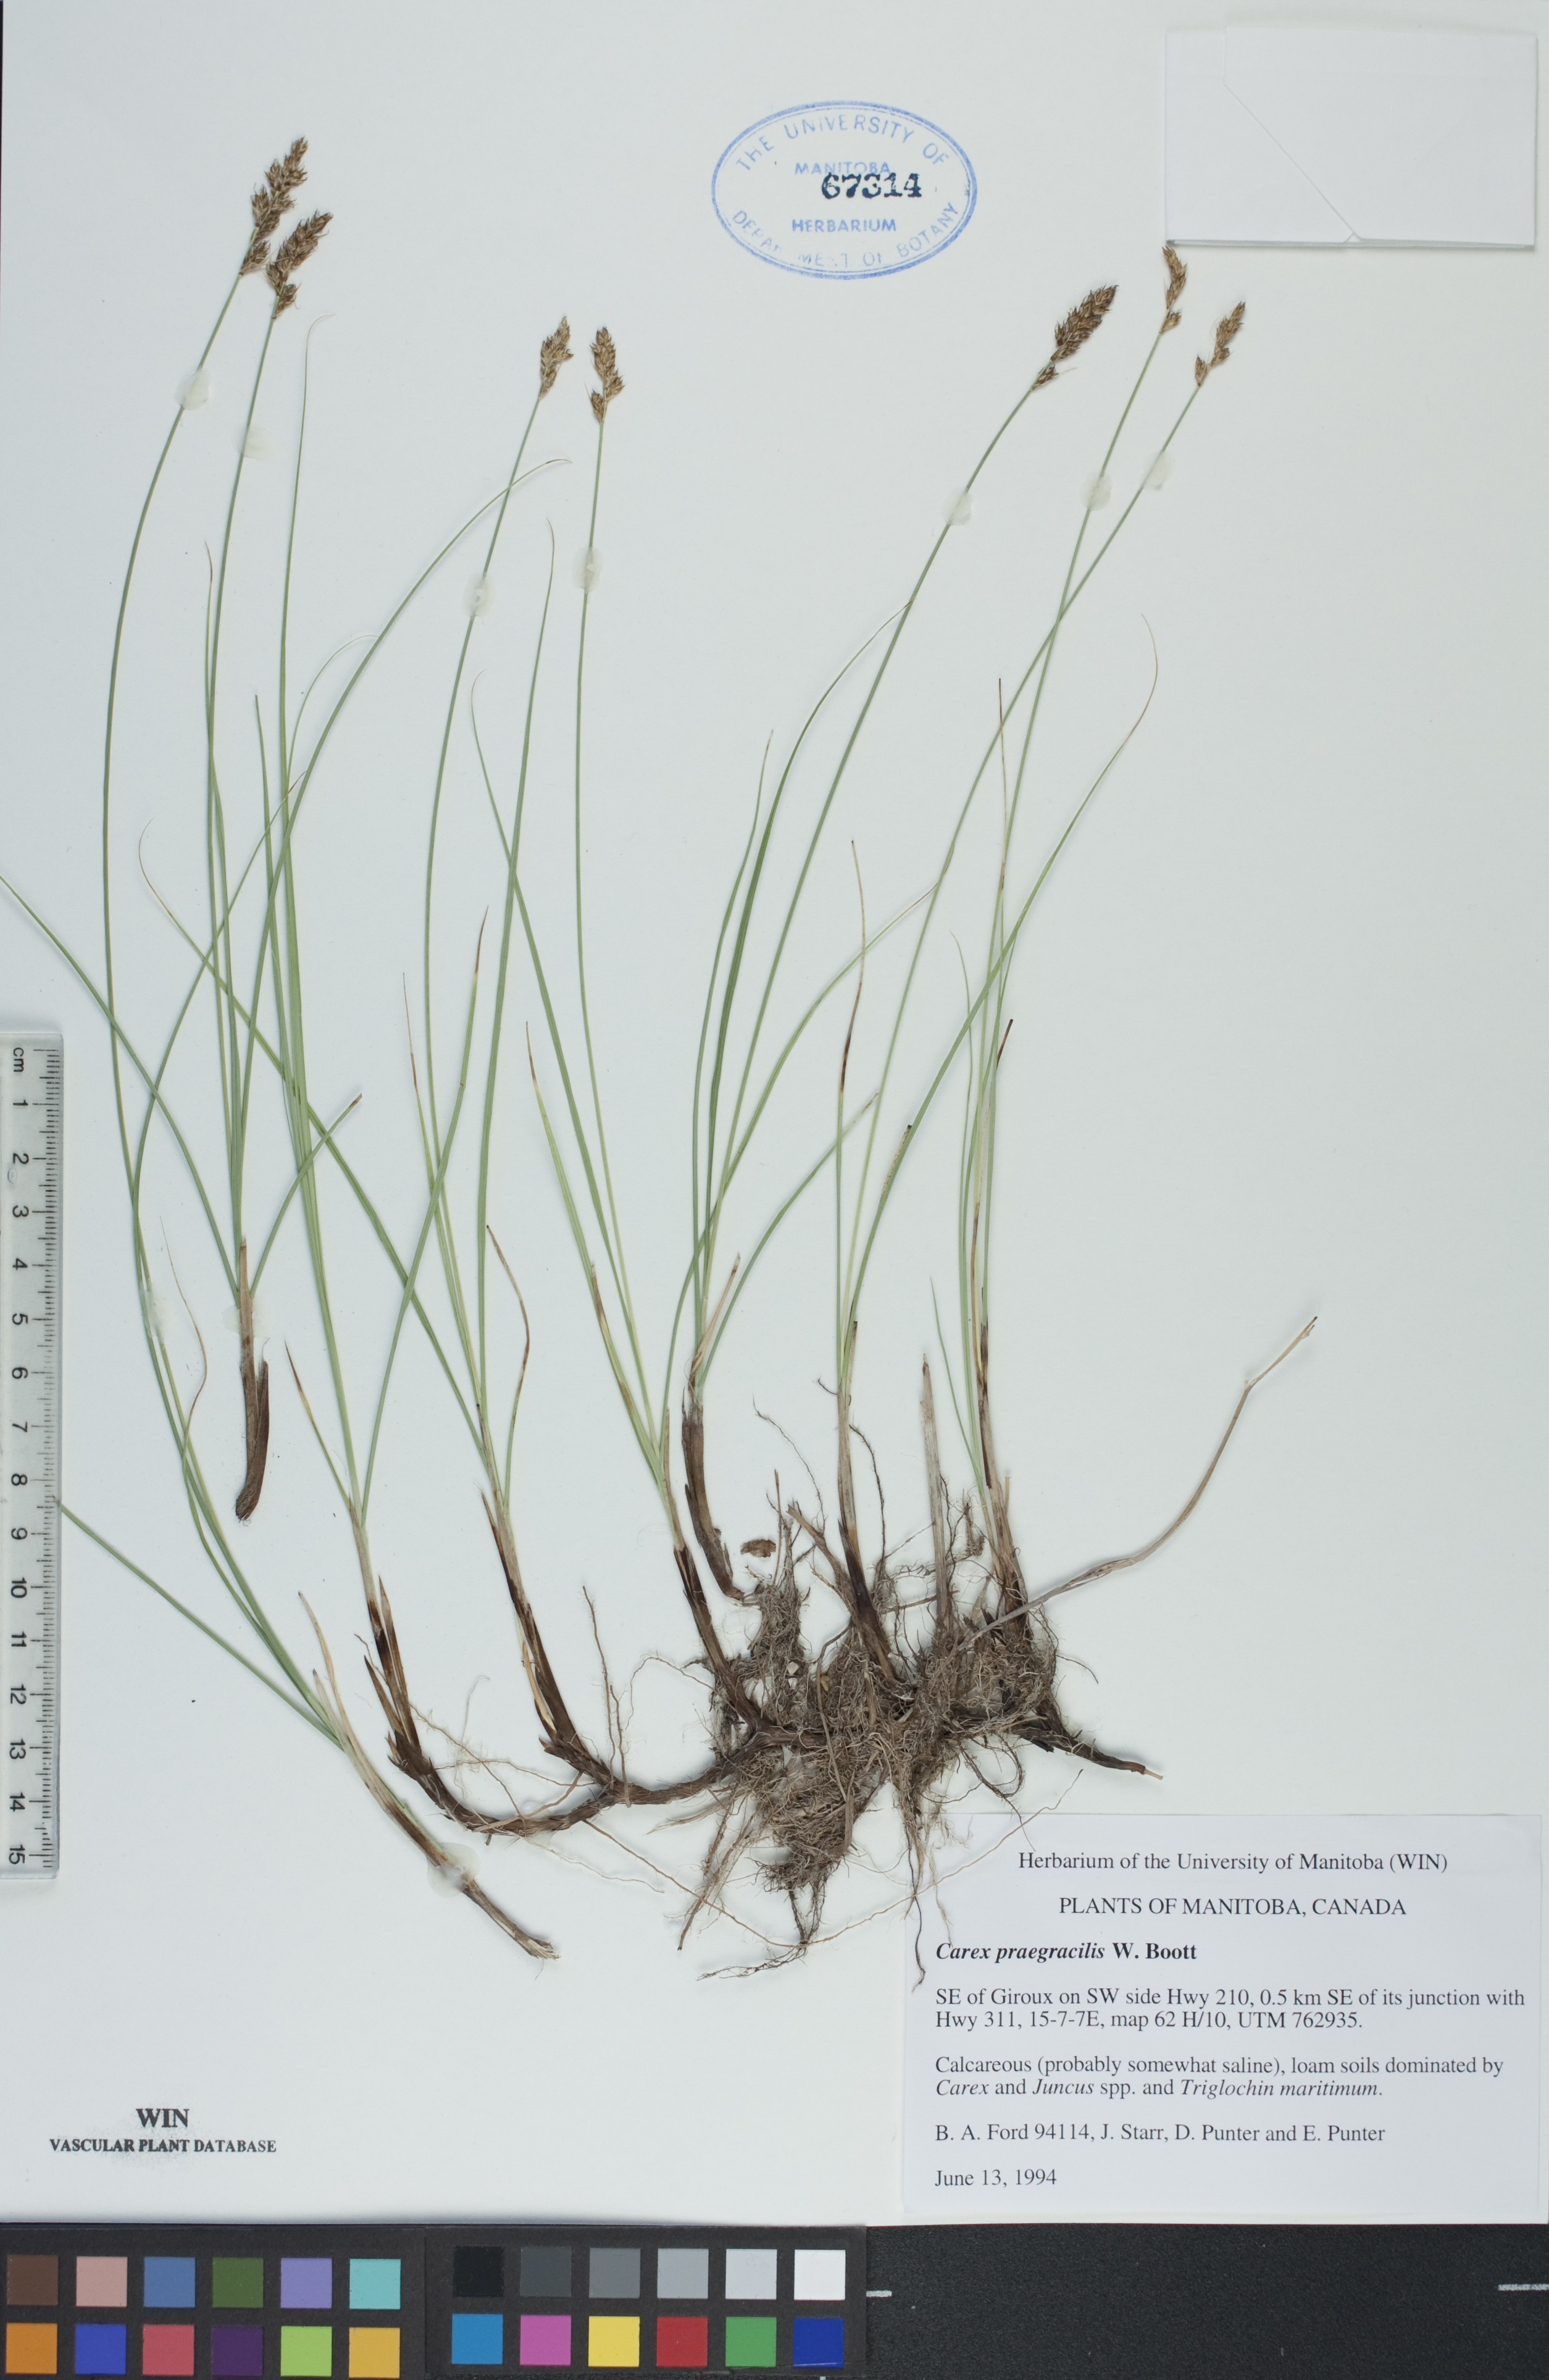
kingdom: Plantae
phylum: Tracheophyta
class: Liliopsida
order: Poales
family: Cyperaceae
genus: Carex
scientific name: Carex praegracilis
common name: Black creeper sedge
